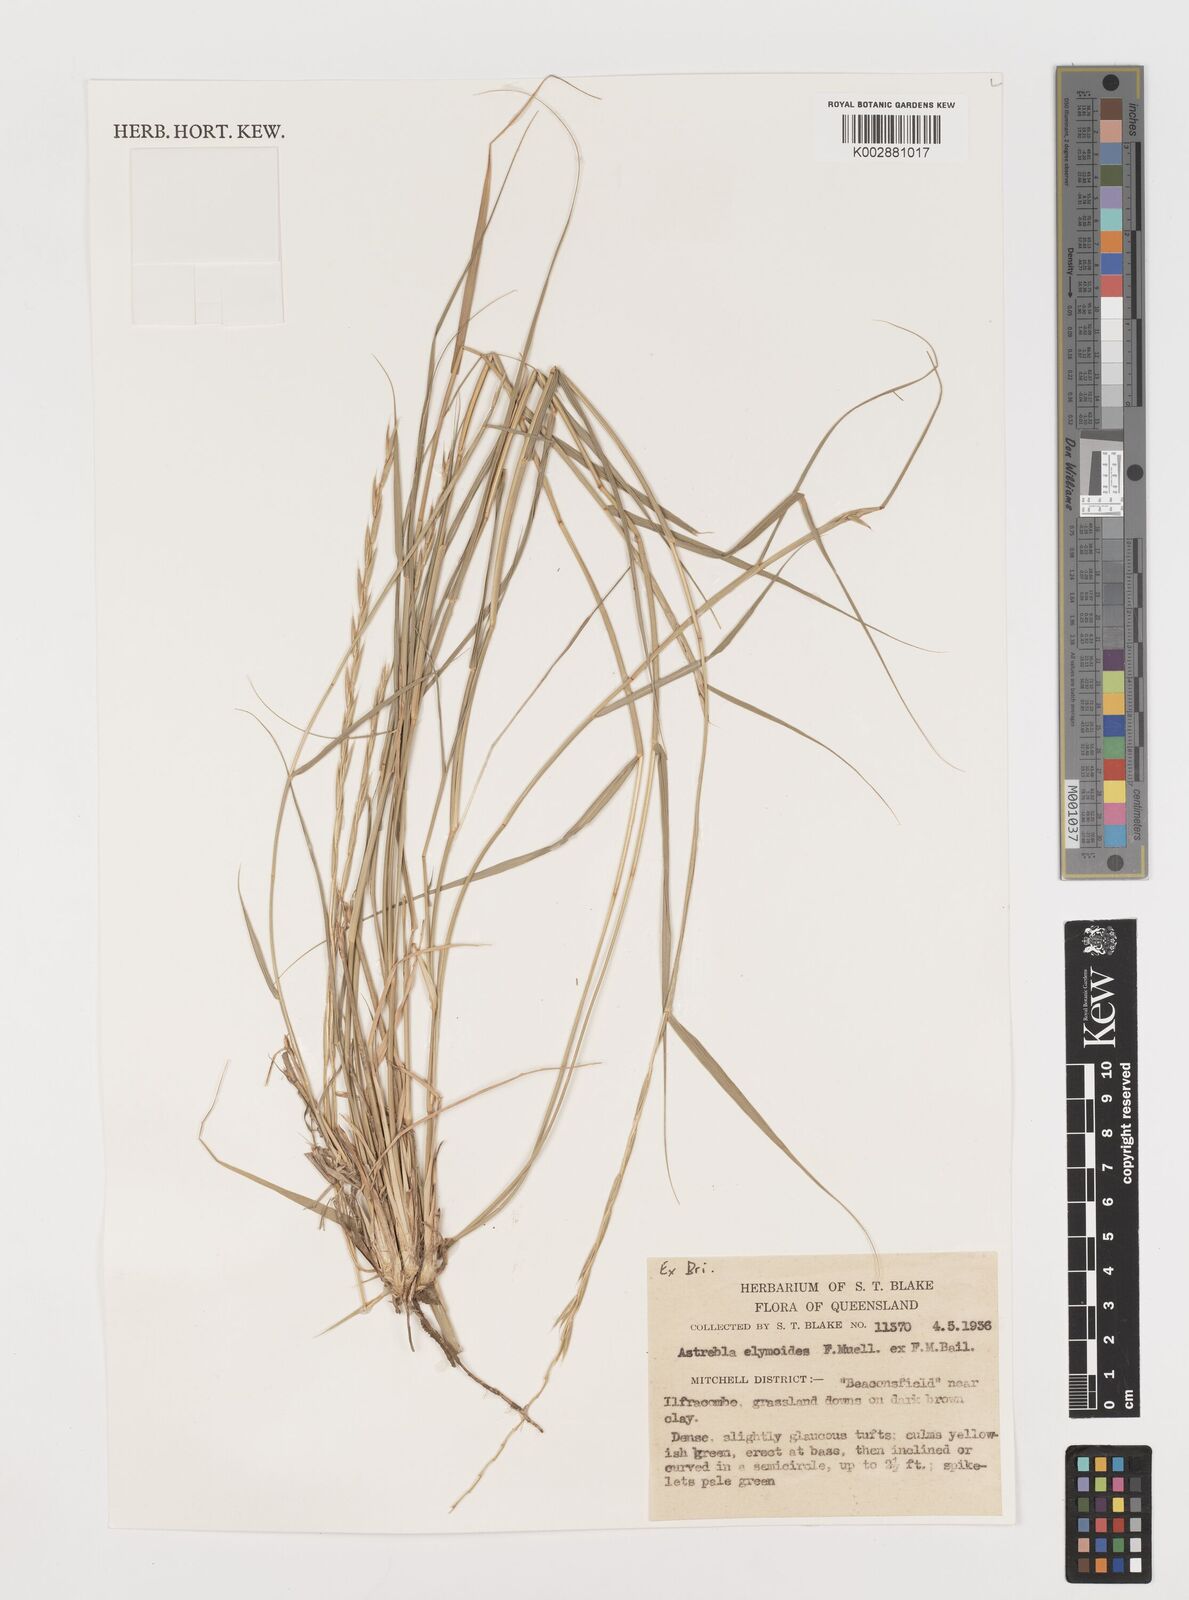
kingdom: Plantae
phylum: Tracheophyta
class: Liliopsida
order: Poales
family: Poaceae
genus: Astrebla
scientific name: Astrebla elymoides
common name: Hoop mitchell grass
